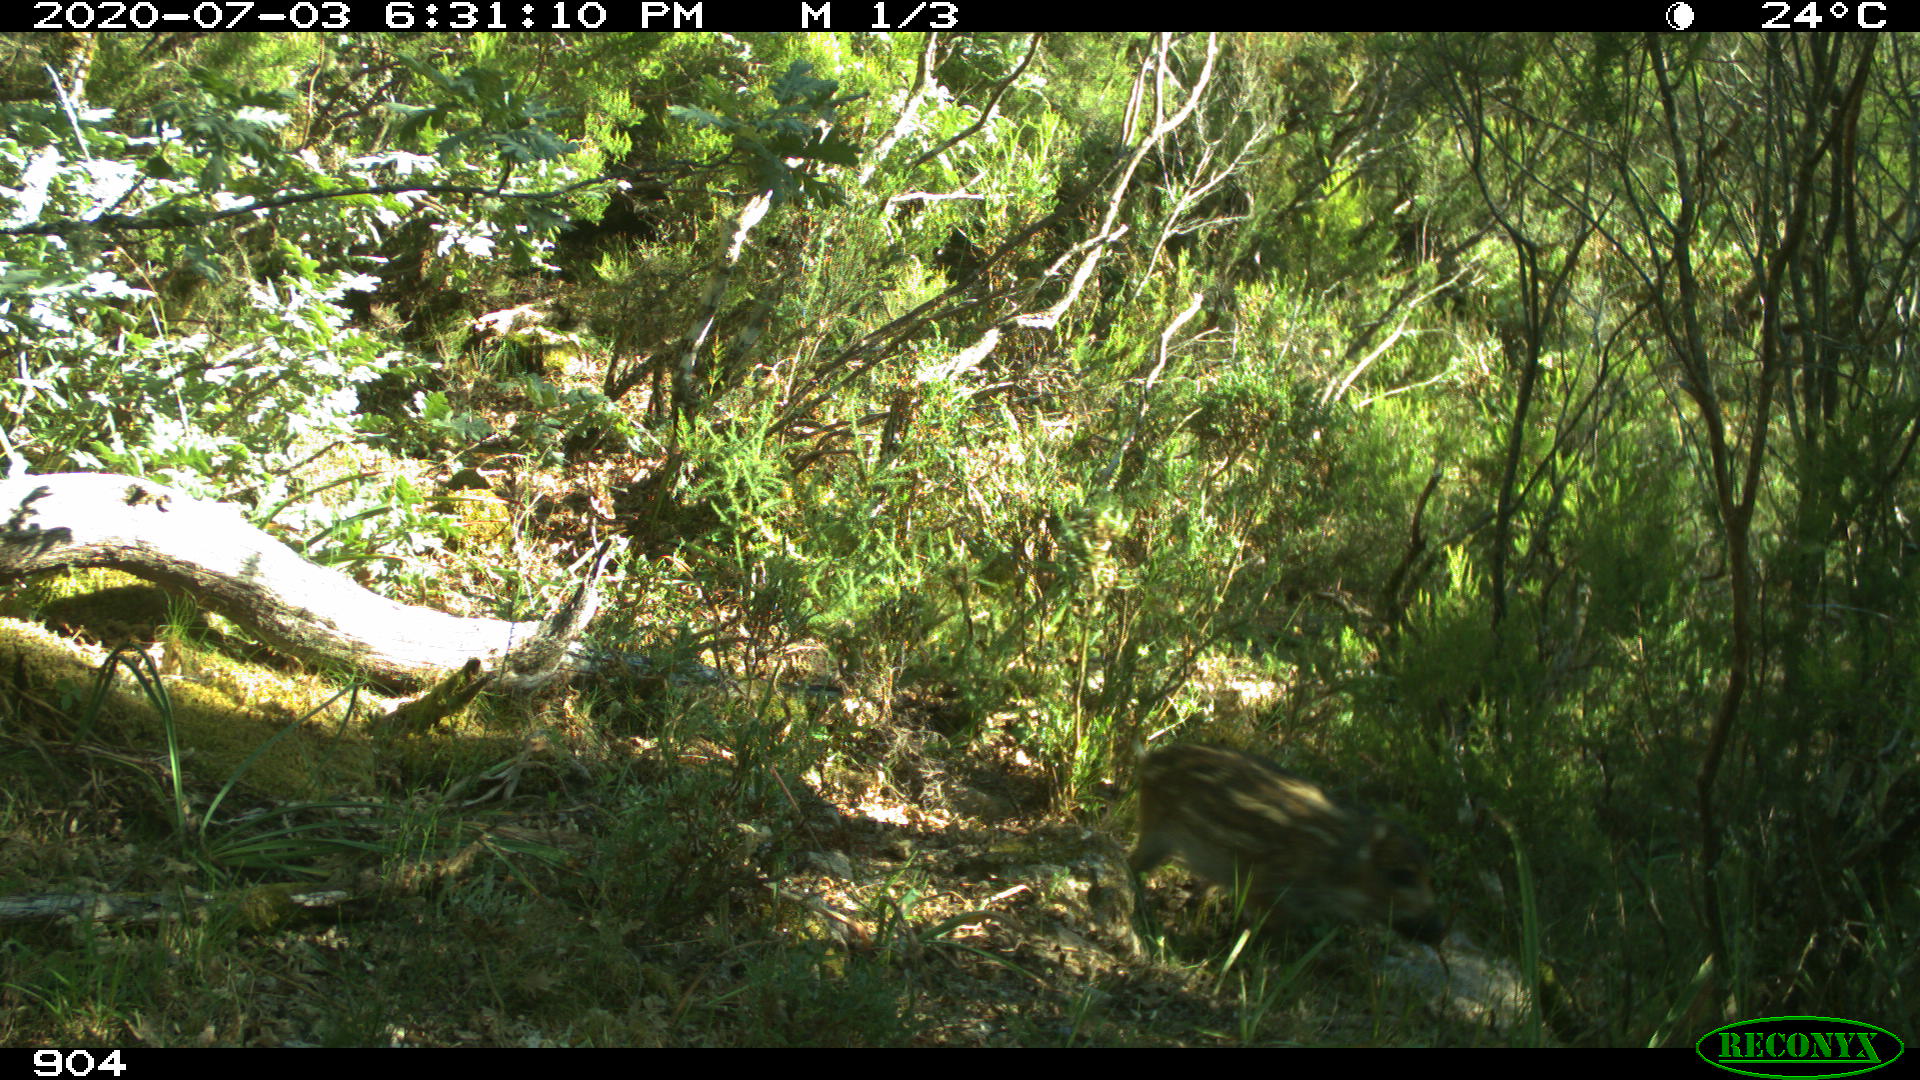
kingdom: Animalia
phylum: Chordata
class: Mammalia
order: Artiodactyla
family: Suidae
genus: Sus
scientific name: Sus scrofa
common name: Wild boar
